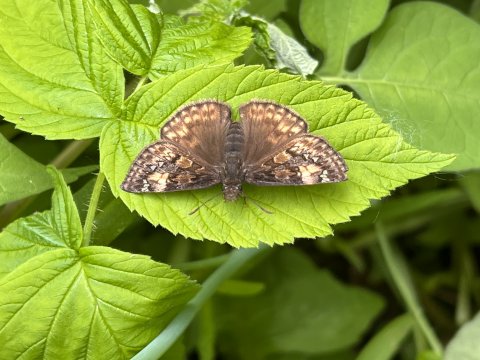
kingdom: Animalia
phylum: Arthropoda
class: Insecta
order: Lepidoptera
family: Hesperiidae
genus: Gesta
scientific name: Gesta
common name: Juvenal's Duskywing
